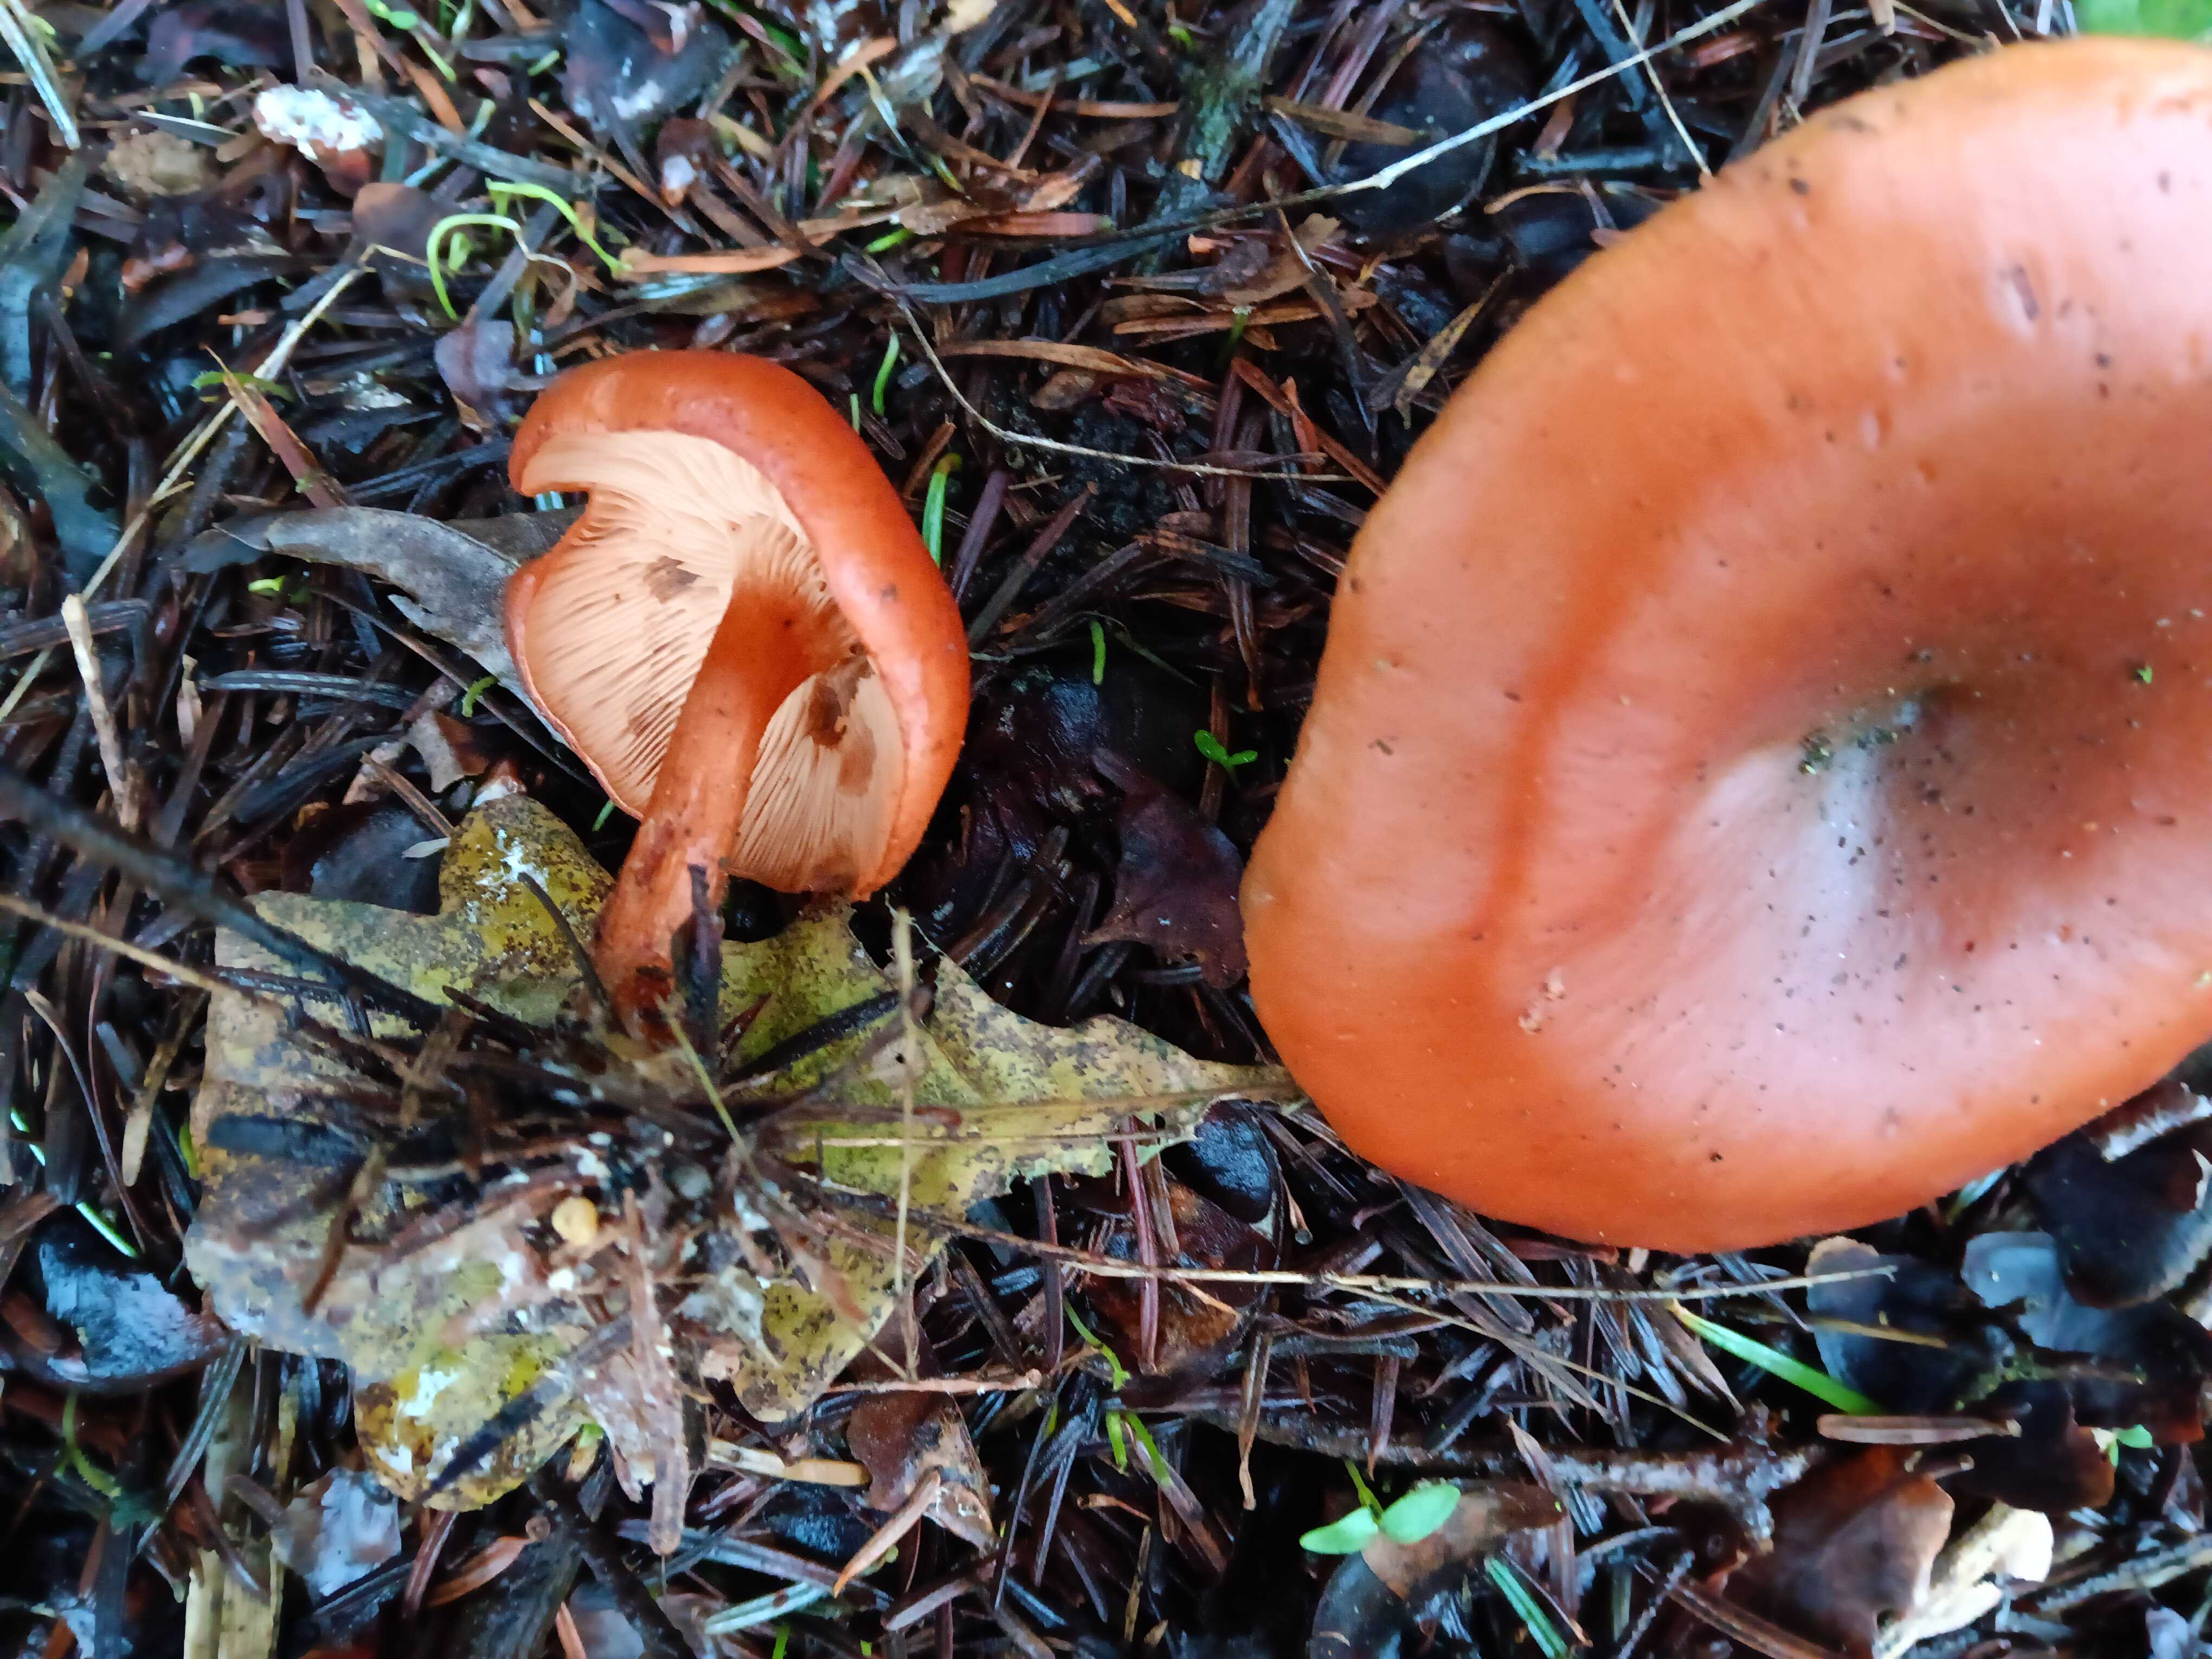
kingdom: Fungi
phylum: Basidiomycota
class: Agaricomycetes
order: Agaricales
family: Tricholomataceae
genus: Paralepista
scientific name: Paralepista flaccida
